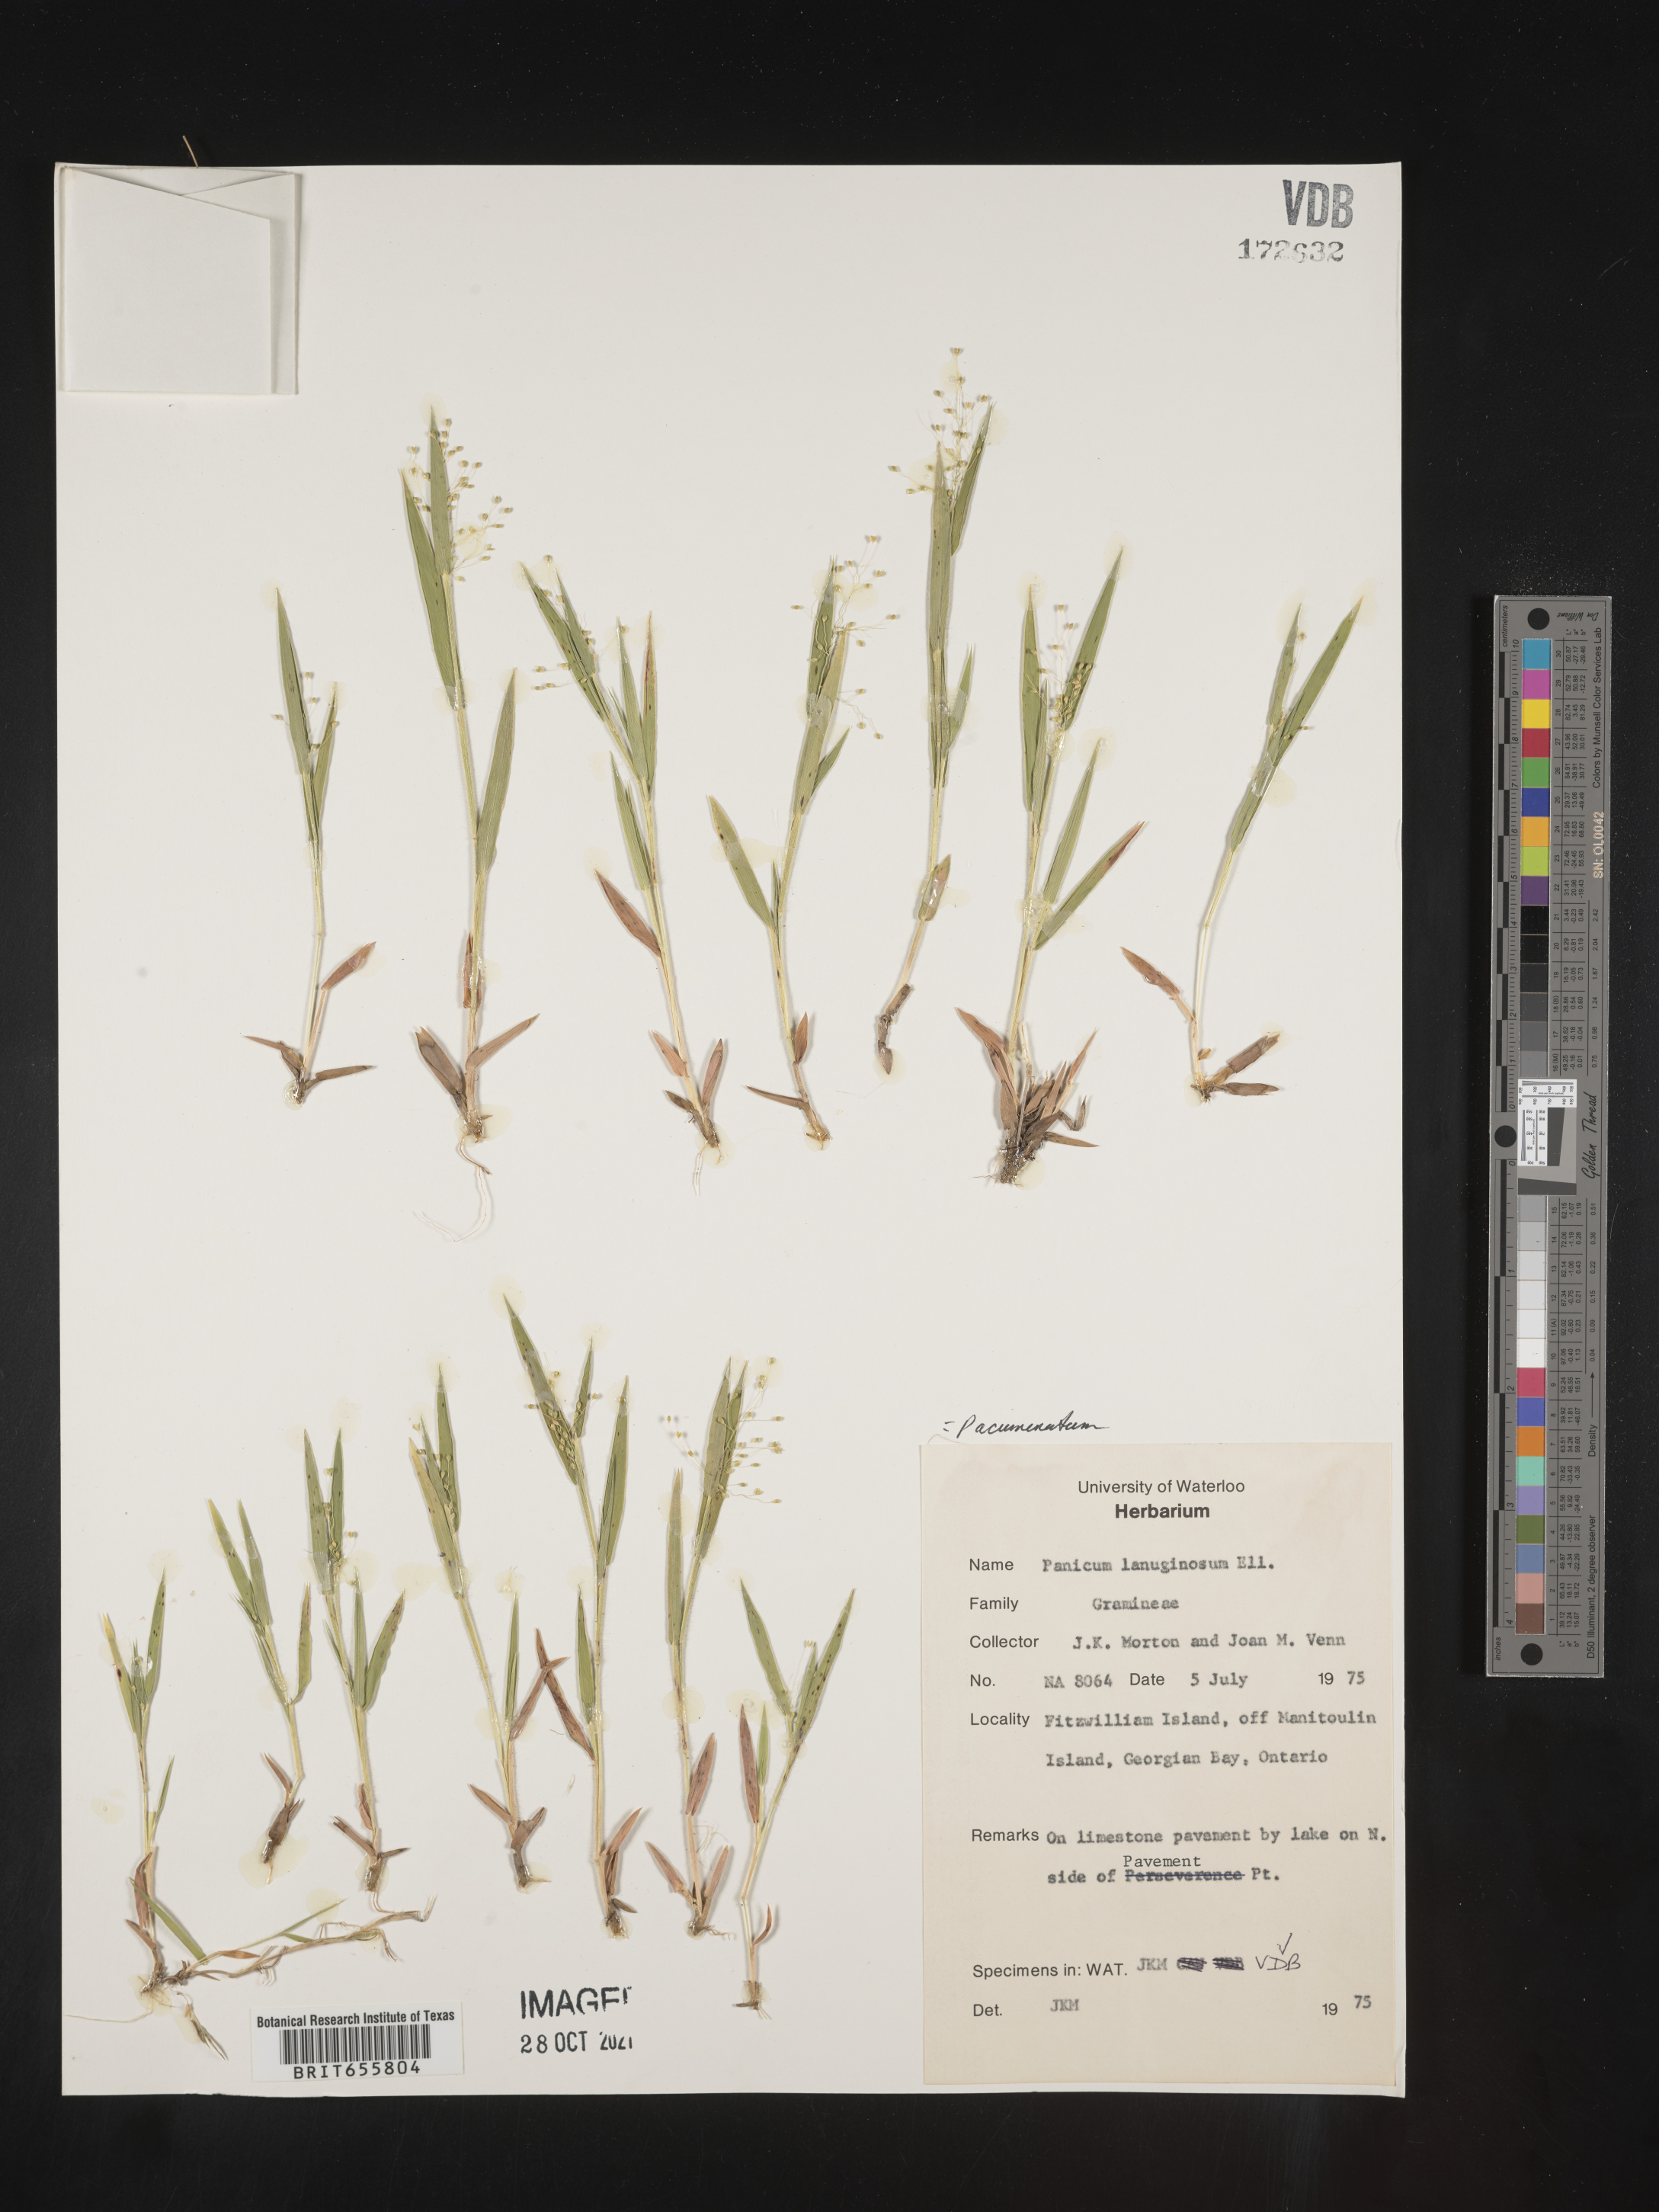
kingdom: Plantae
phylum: Tracheophyta
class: Liliopsida
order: Poales
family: Poaceae
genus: Panicum
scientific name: Panicum
